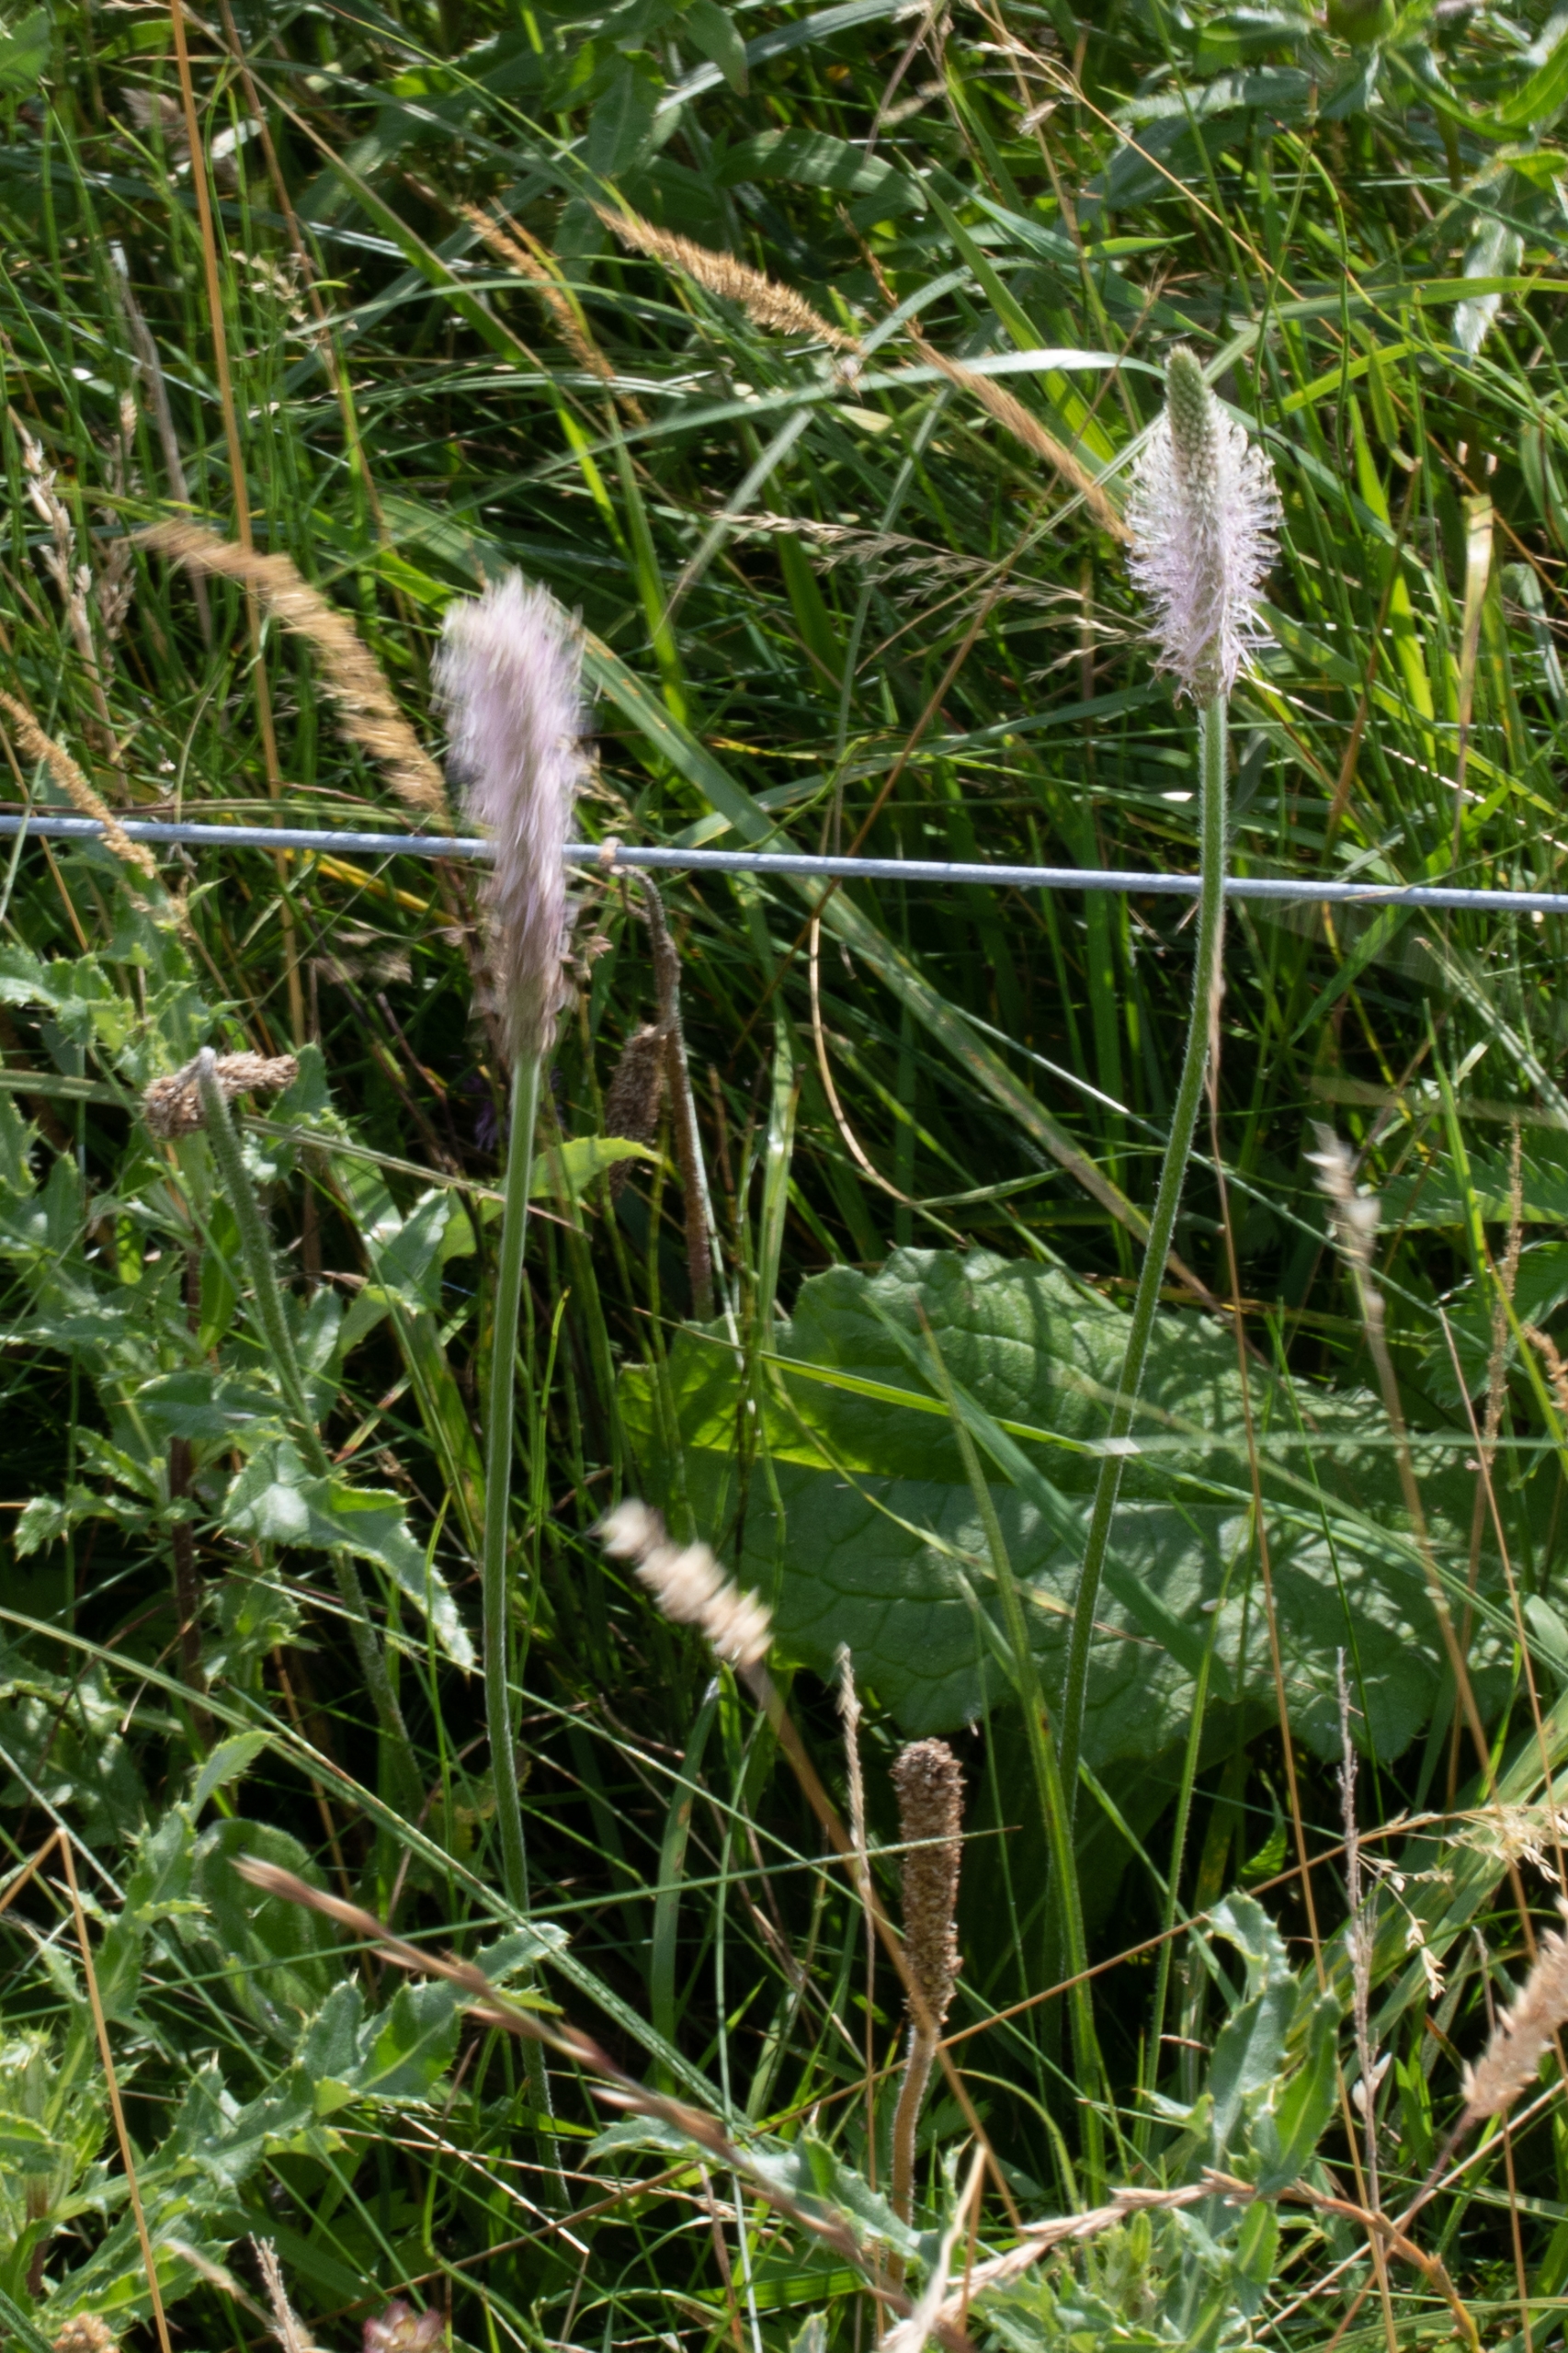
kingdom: Plantae
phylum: Tracheophyta
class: Magnoliopsida
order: Lamiales
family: Plantaginaceae
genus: Plantago
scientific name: Plantago media
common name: Dunet vejbred
